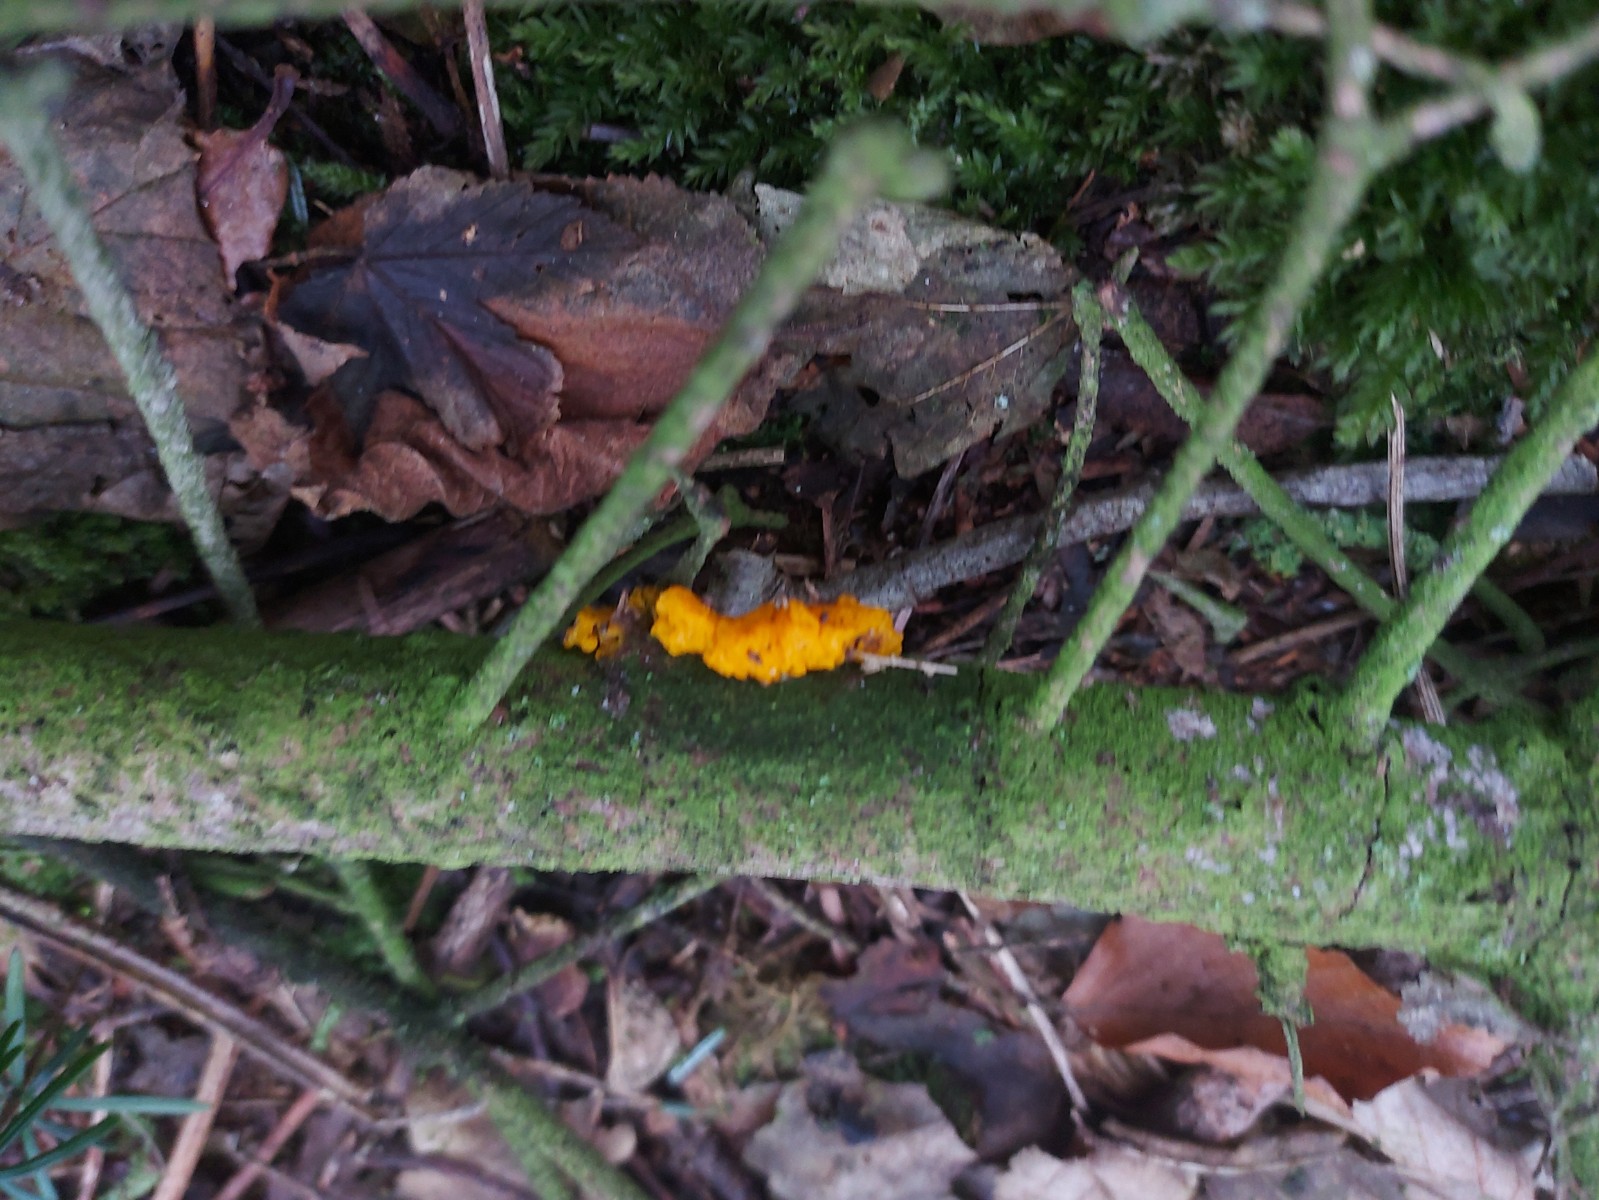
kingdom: Fungi
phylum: Basidiomycota
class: Tremellomycetes
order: Tremellales
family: Tremellaceae
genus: Tremella
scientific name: Tremella mesenterica
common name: gul bævresvamp
